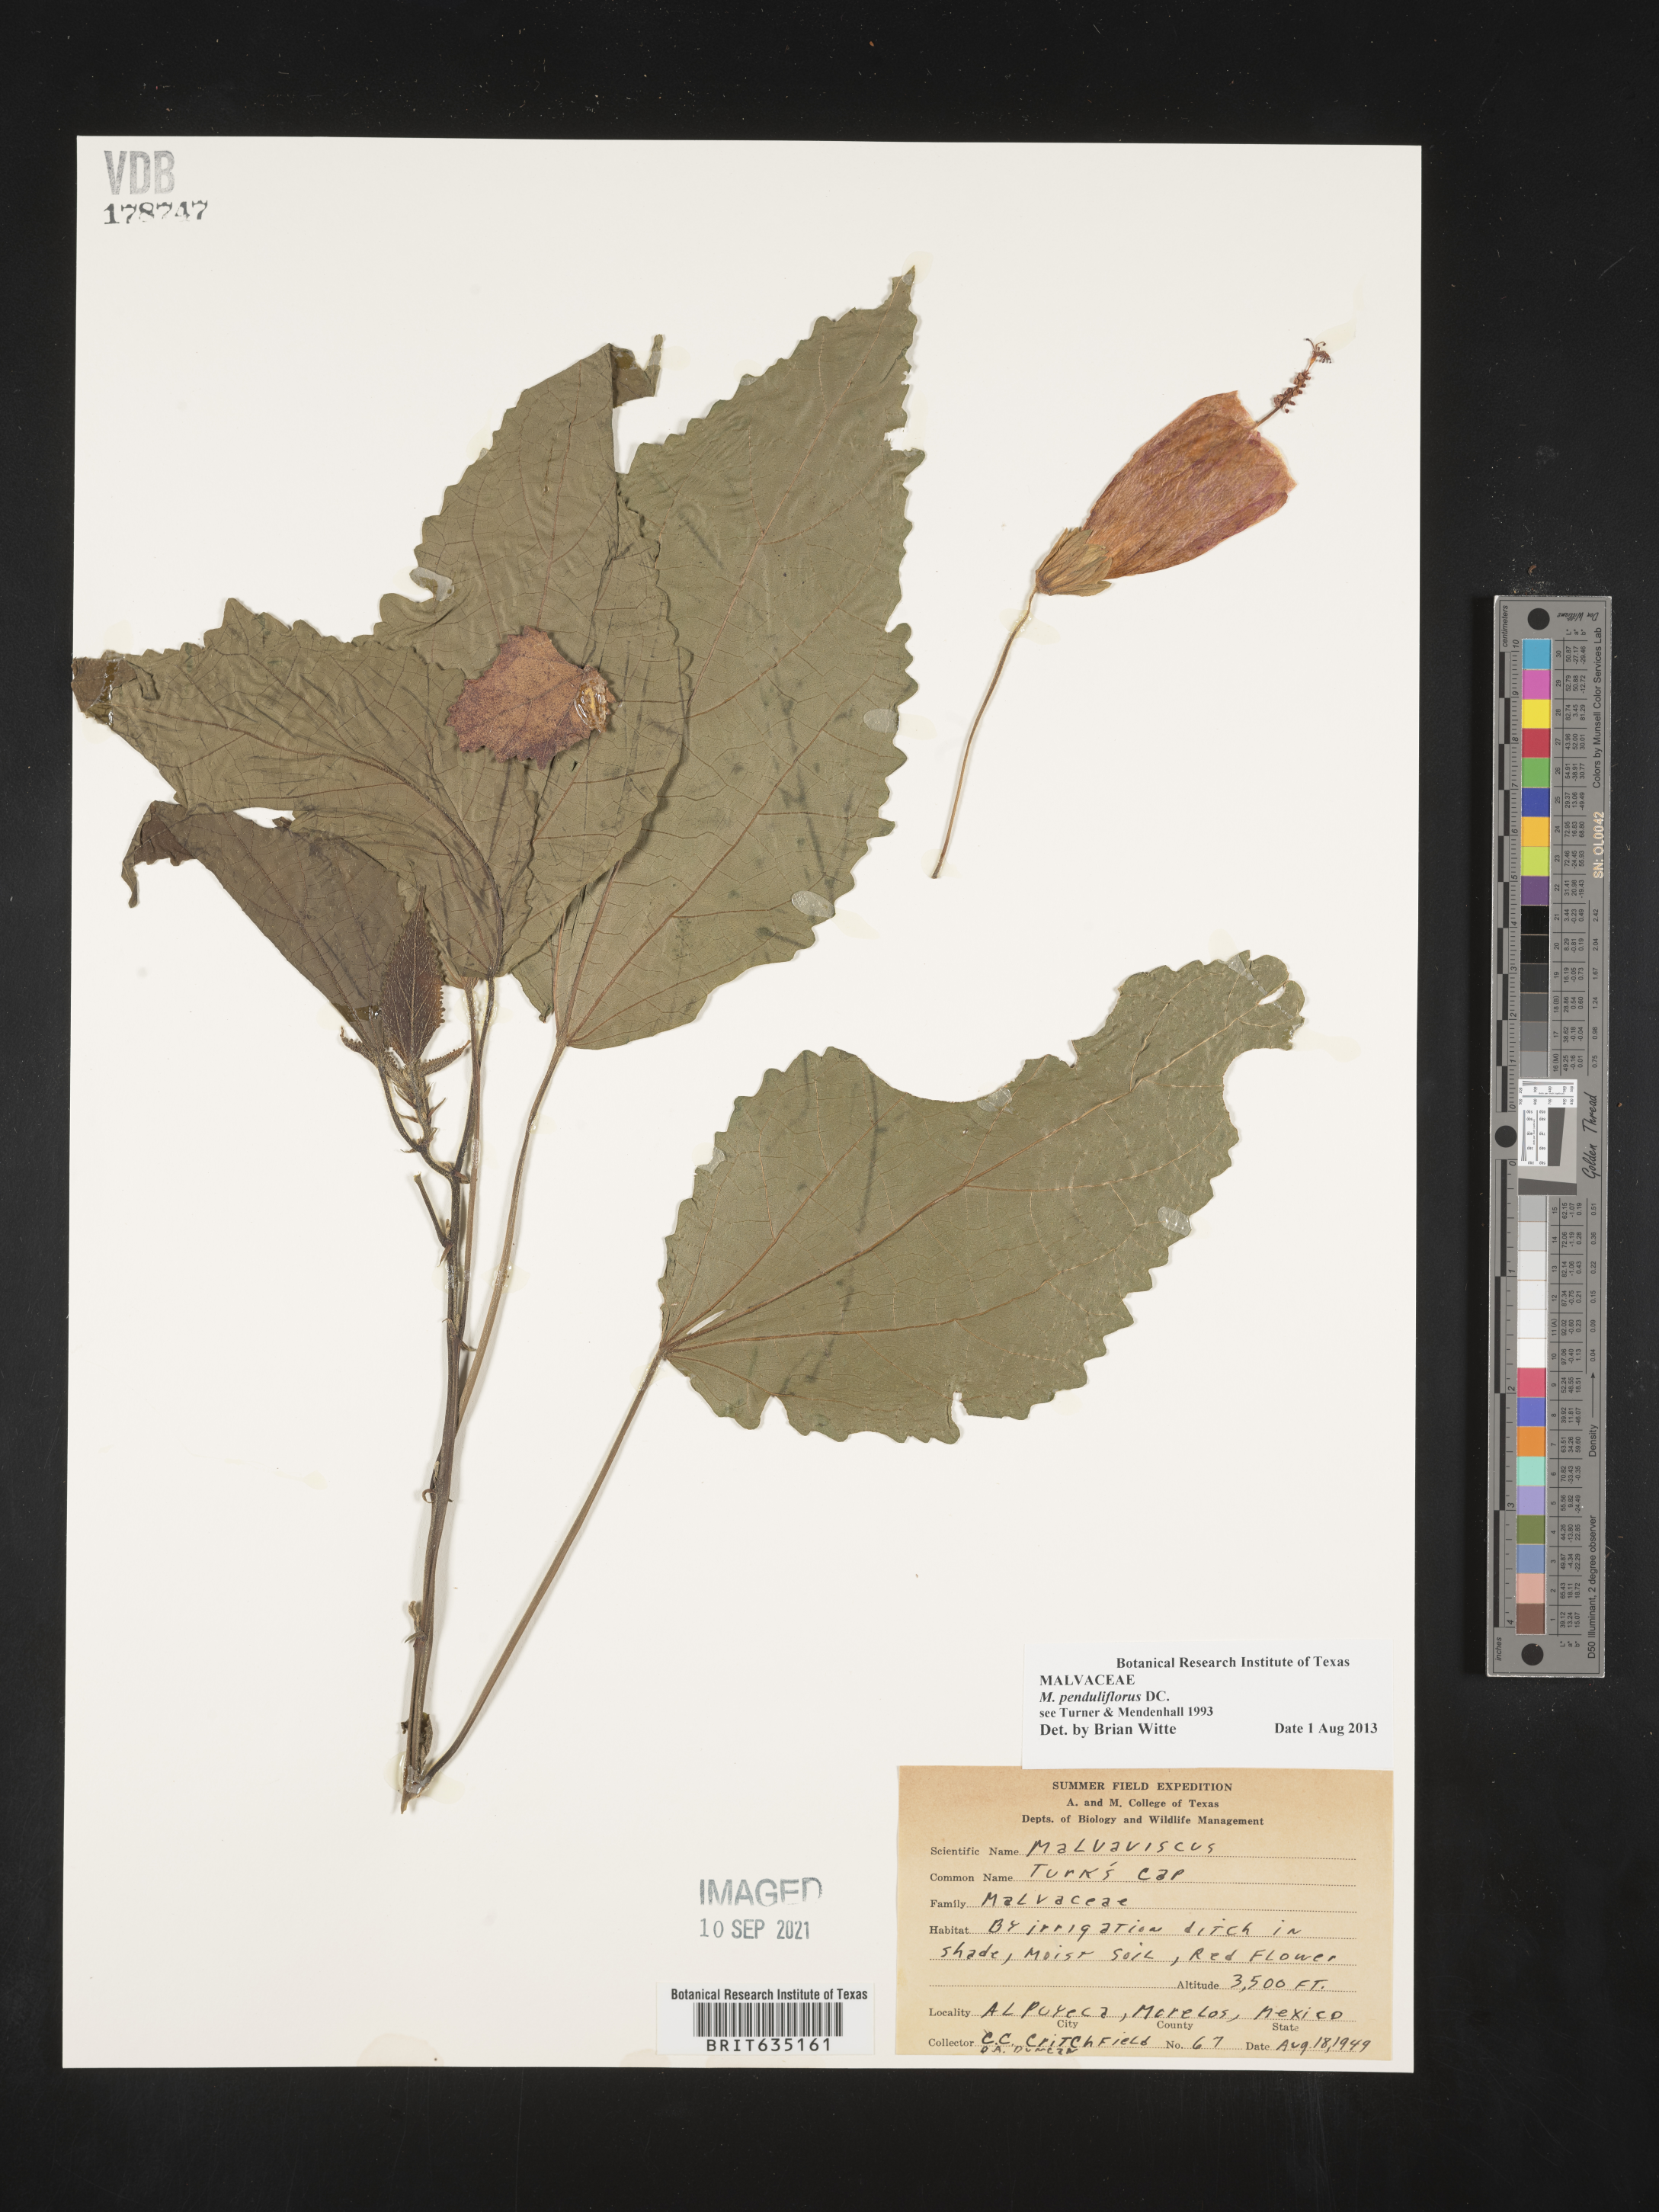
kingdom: Plantae
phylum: Tracheophyta
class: Magnoliopsida
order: Malvales
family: Malvaceae
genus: Malvaviscus
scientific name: Malvaviscus
